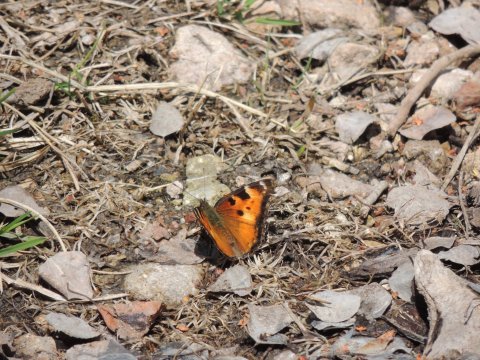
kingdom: Animalia
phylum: Arthropoda
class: Insecta
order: Lepidoptera
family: Nymphalidae
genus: Nymphalis
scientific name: Nymphalis californica
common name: California Tortoiseshell
